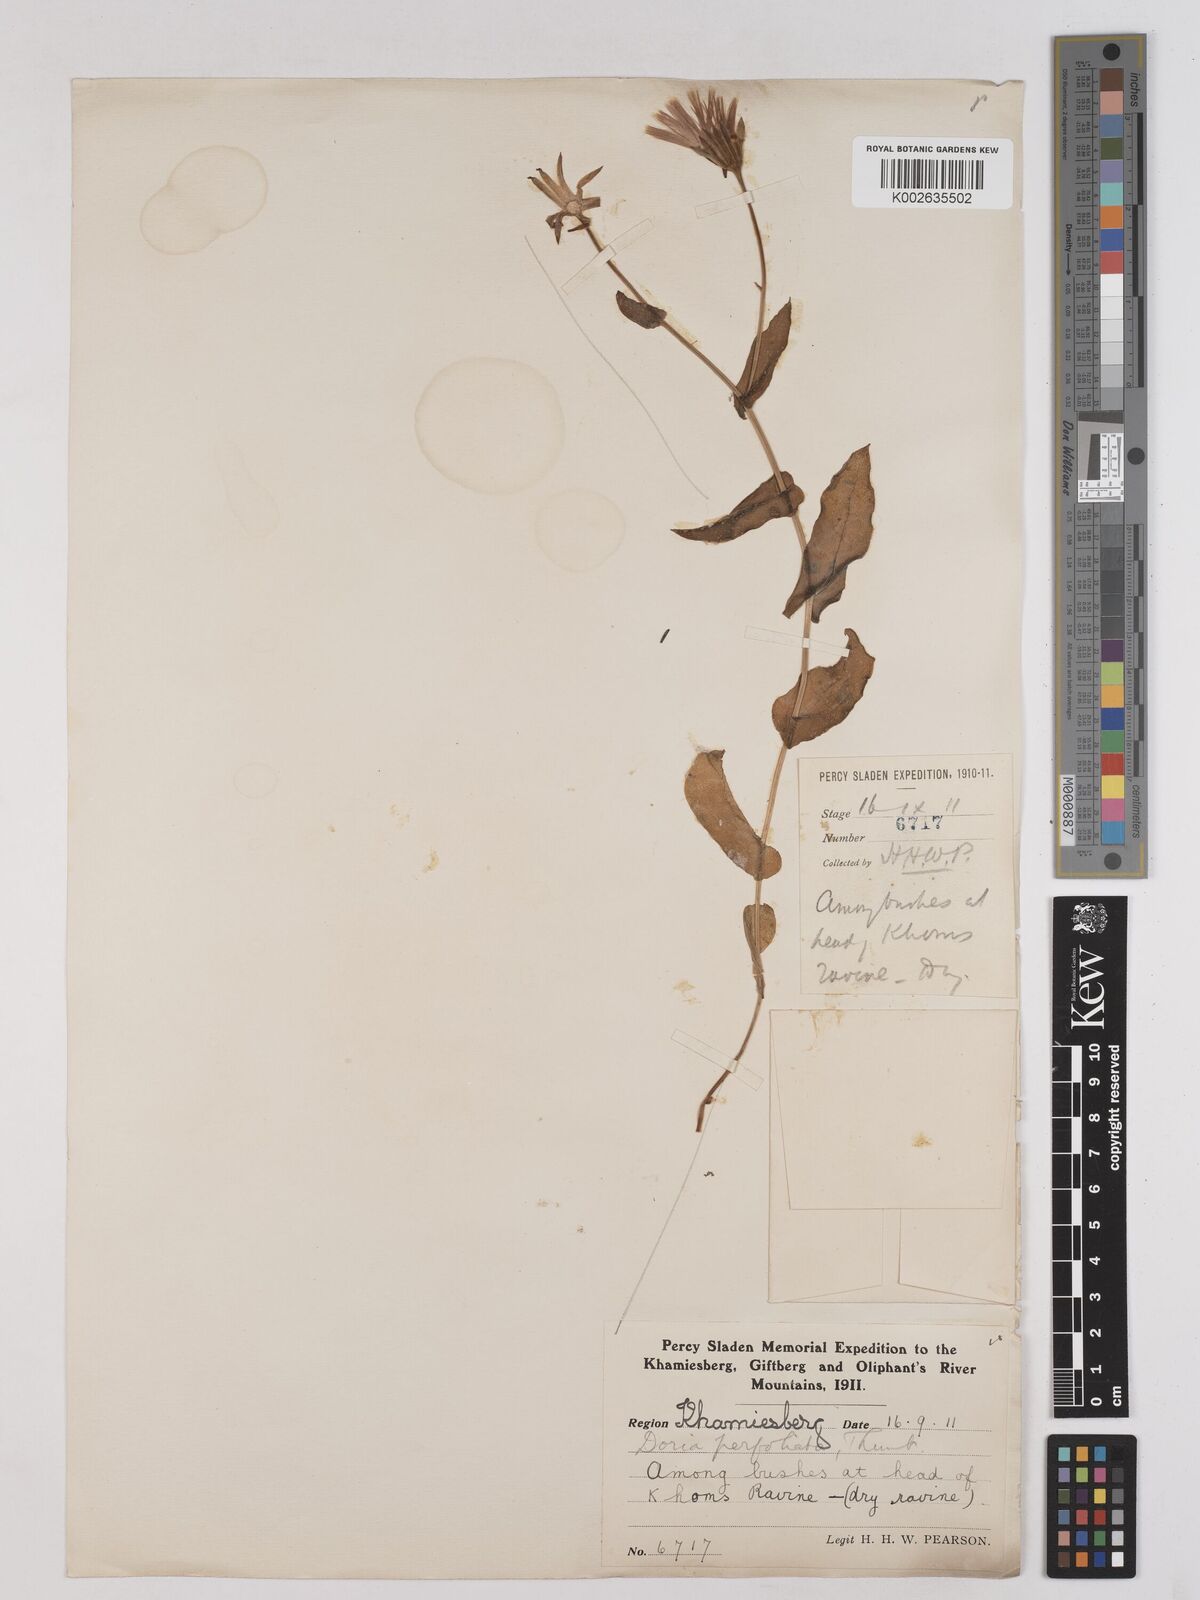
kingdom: Plantae
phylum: Tracheophyta
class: Magnoliopsida
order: Asterales
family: Asteraceae
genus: Othonna
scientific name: Othonna perfoliata
